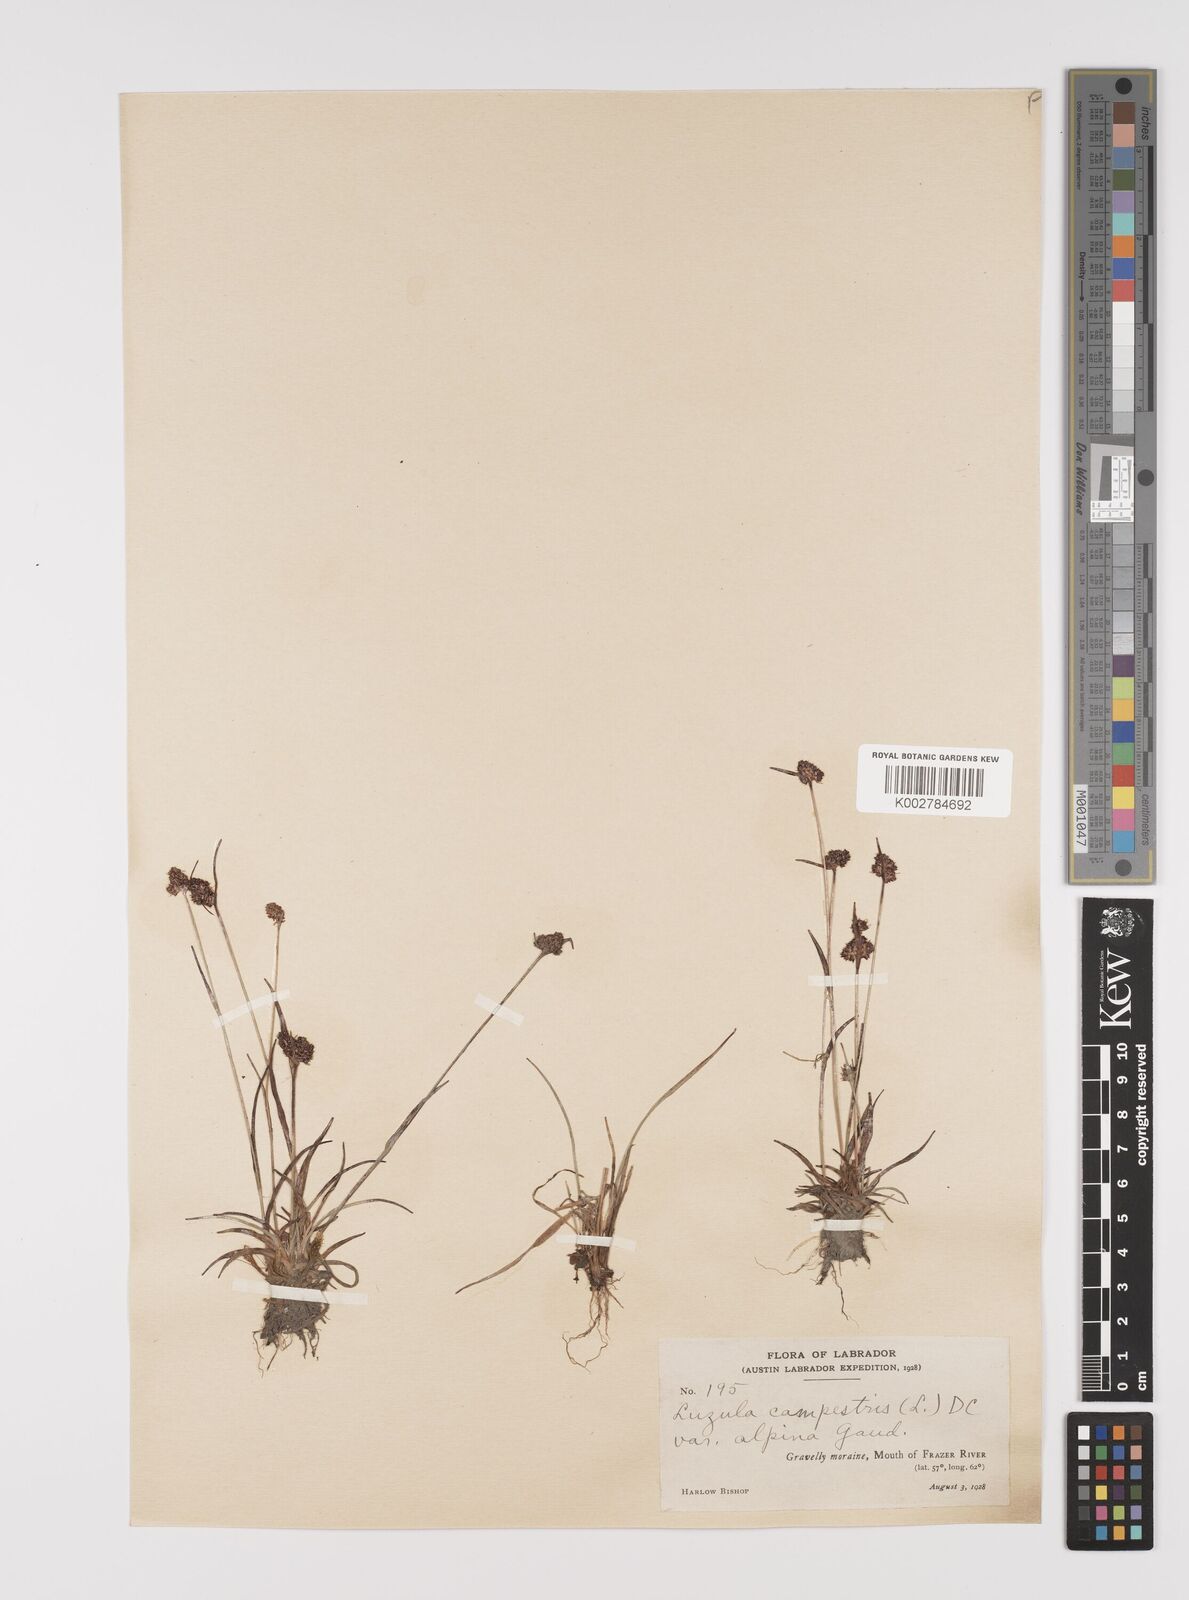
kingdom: Plantae
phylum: Tracheophyta
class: Liliopsida
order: Poales
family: Juncaceae
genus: Luzula
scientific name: Luzula campestris
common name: Field wood-rush
